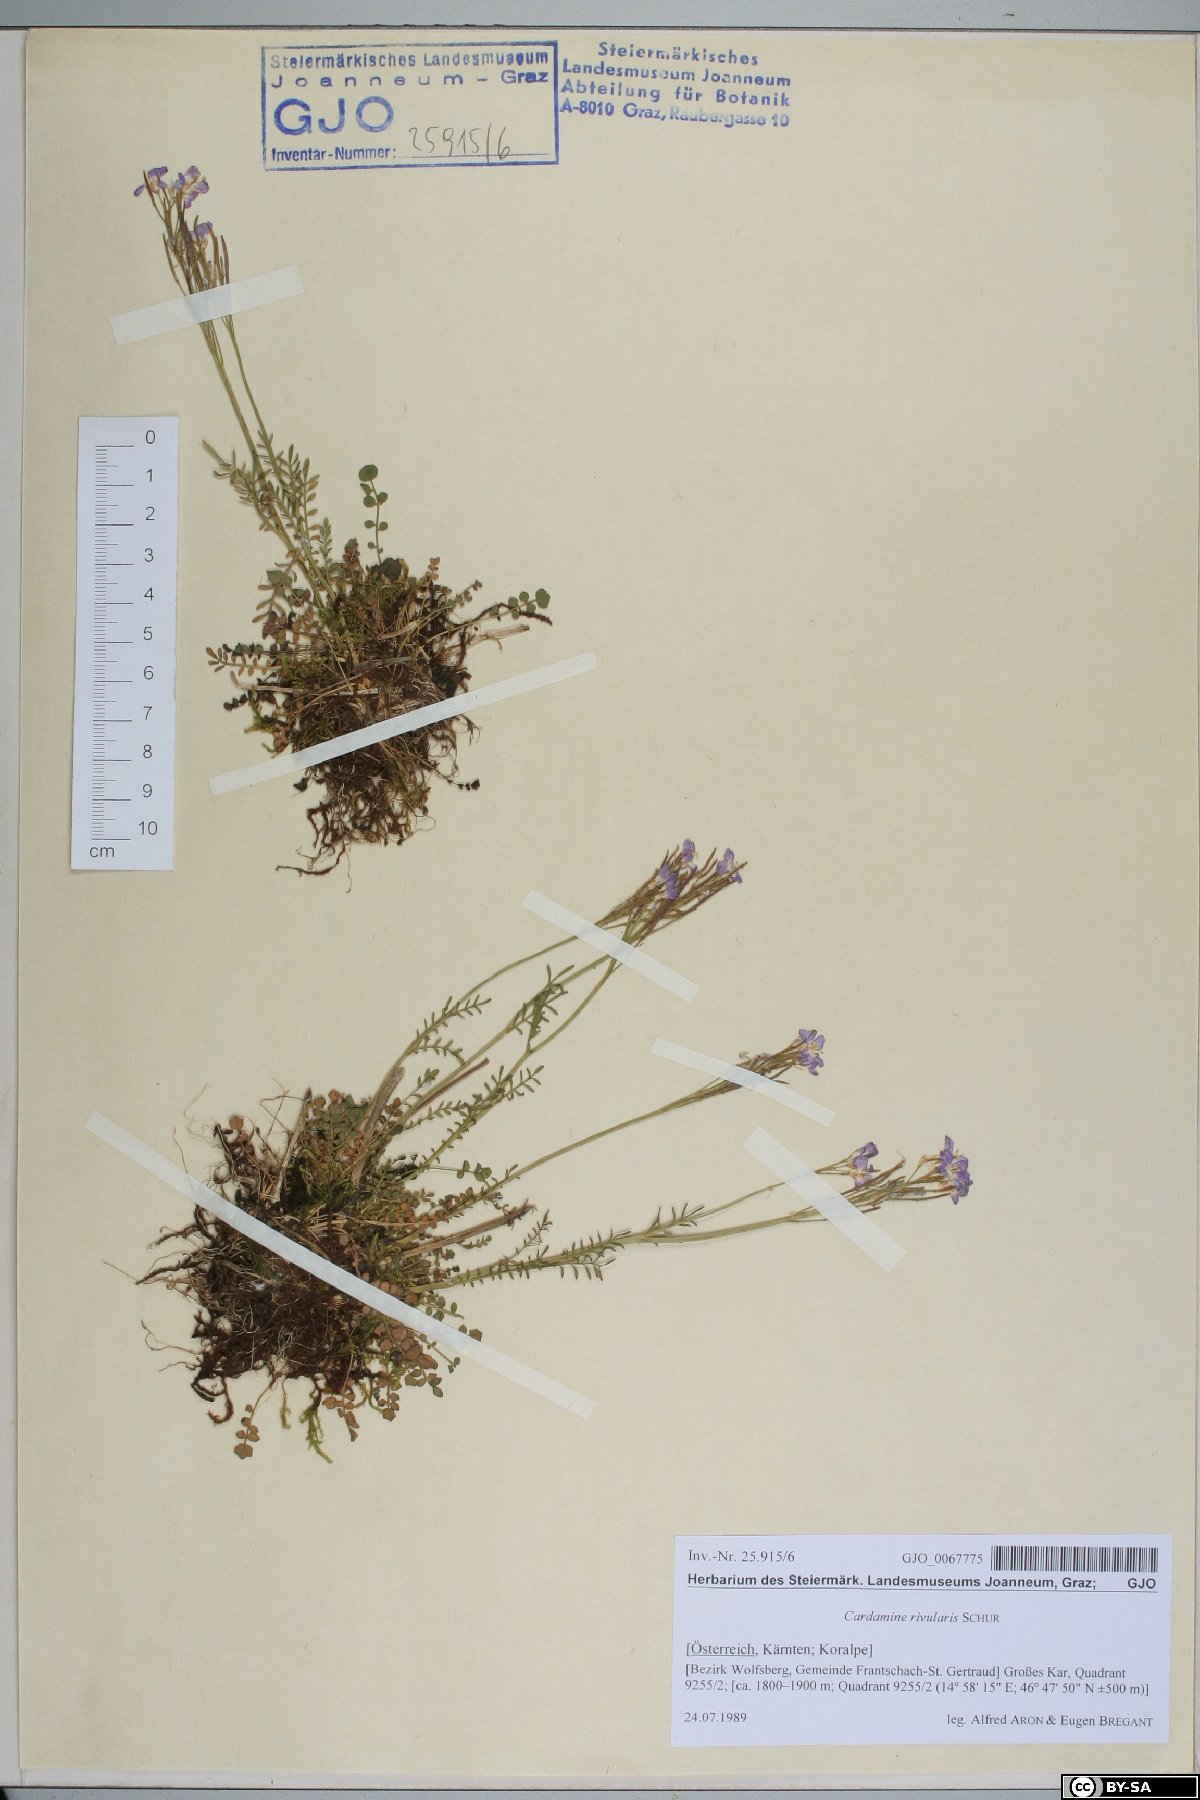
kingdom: Plantae
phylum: Tracheophyta
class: Magnoliopsida
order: Brassicales
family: Brassicaceae
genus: Cardamine
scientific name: Cardamine pratensis
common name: Cuckoo flower
